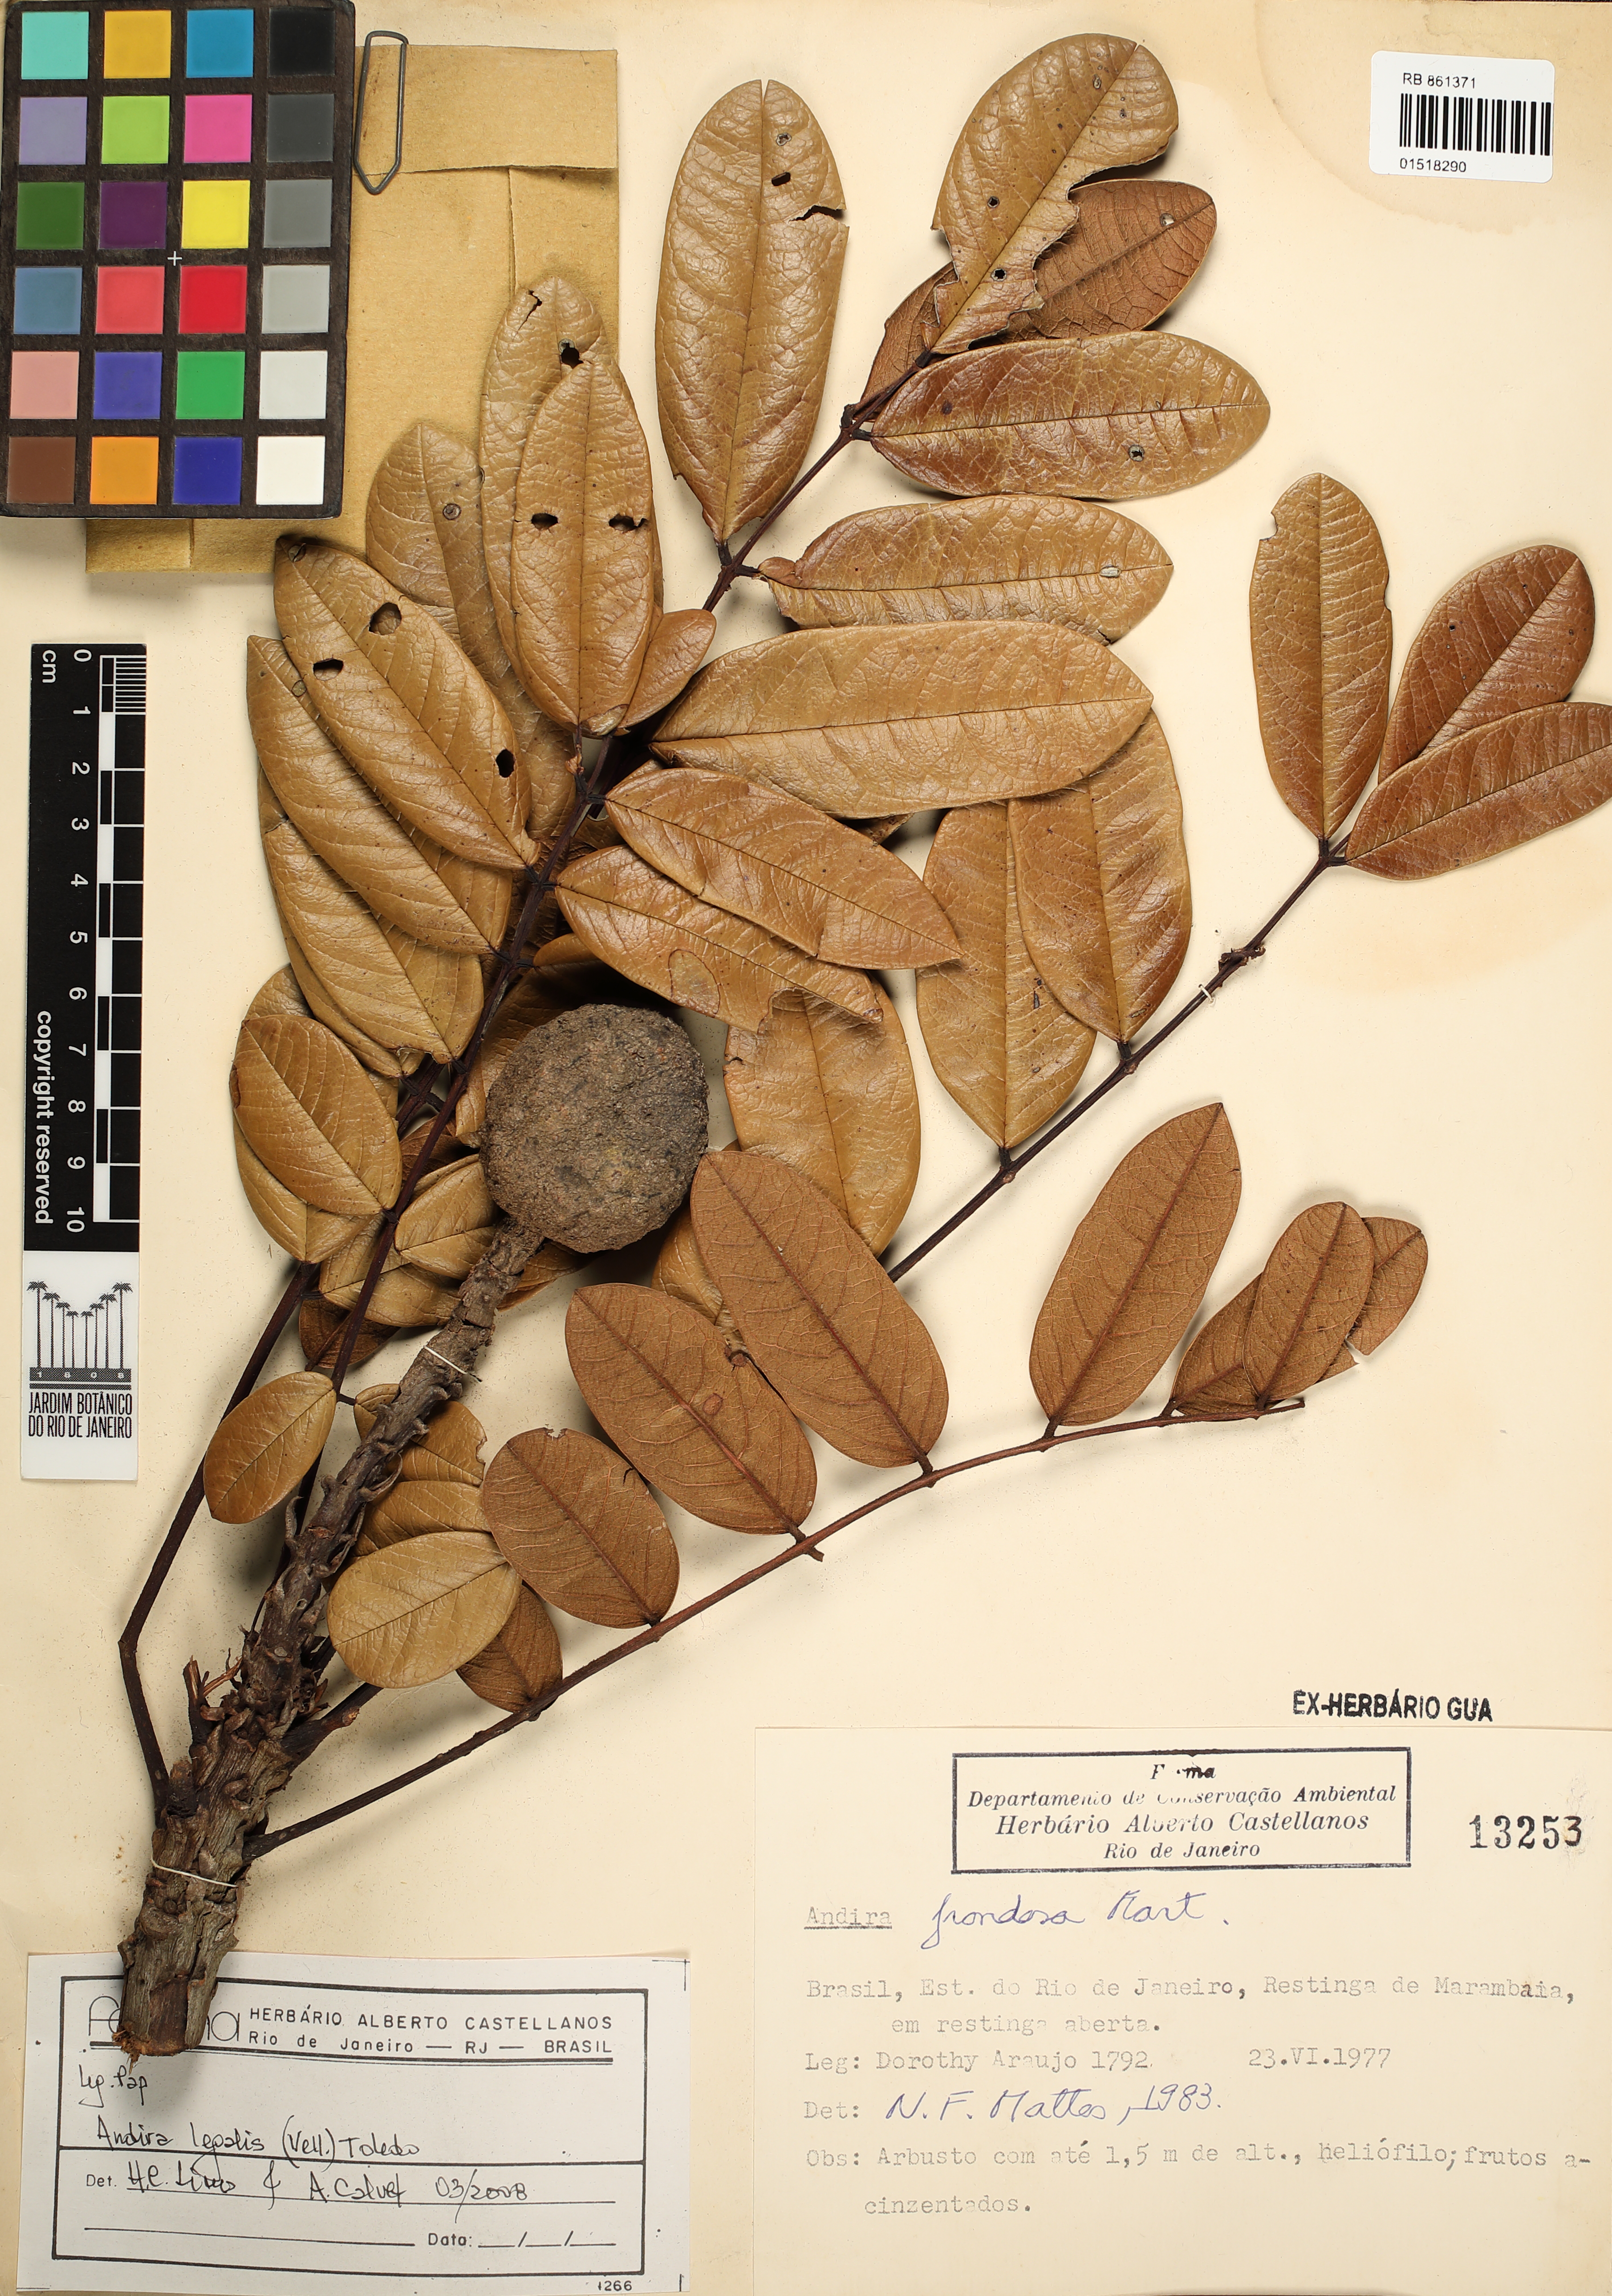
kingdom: Plantae
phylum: Tracheophyta
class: Magnoliopsida
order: Fabales
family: Fabaceae
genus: Andira
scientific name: Andira legalis
